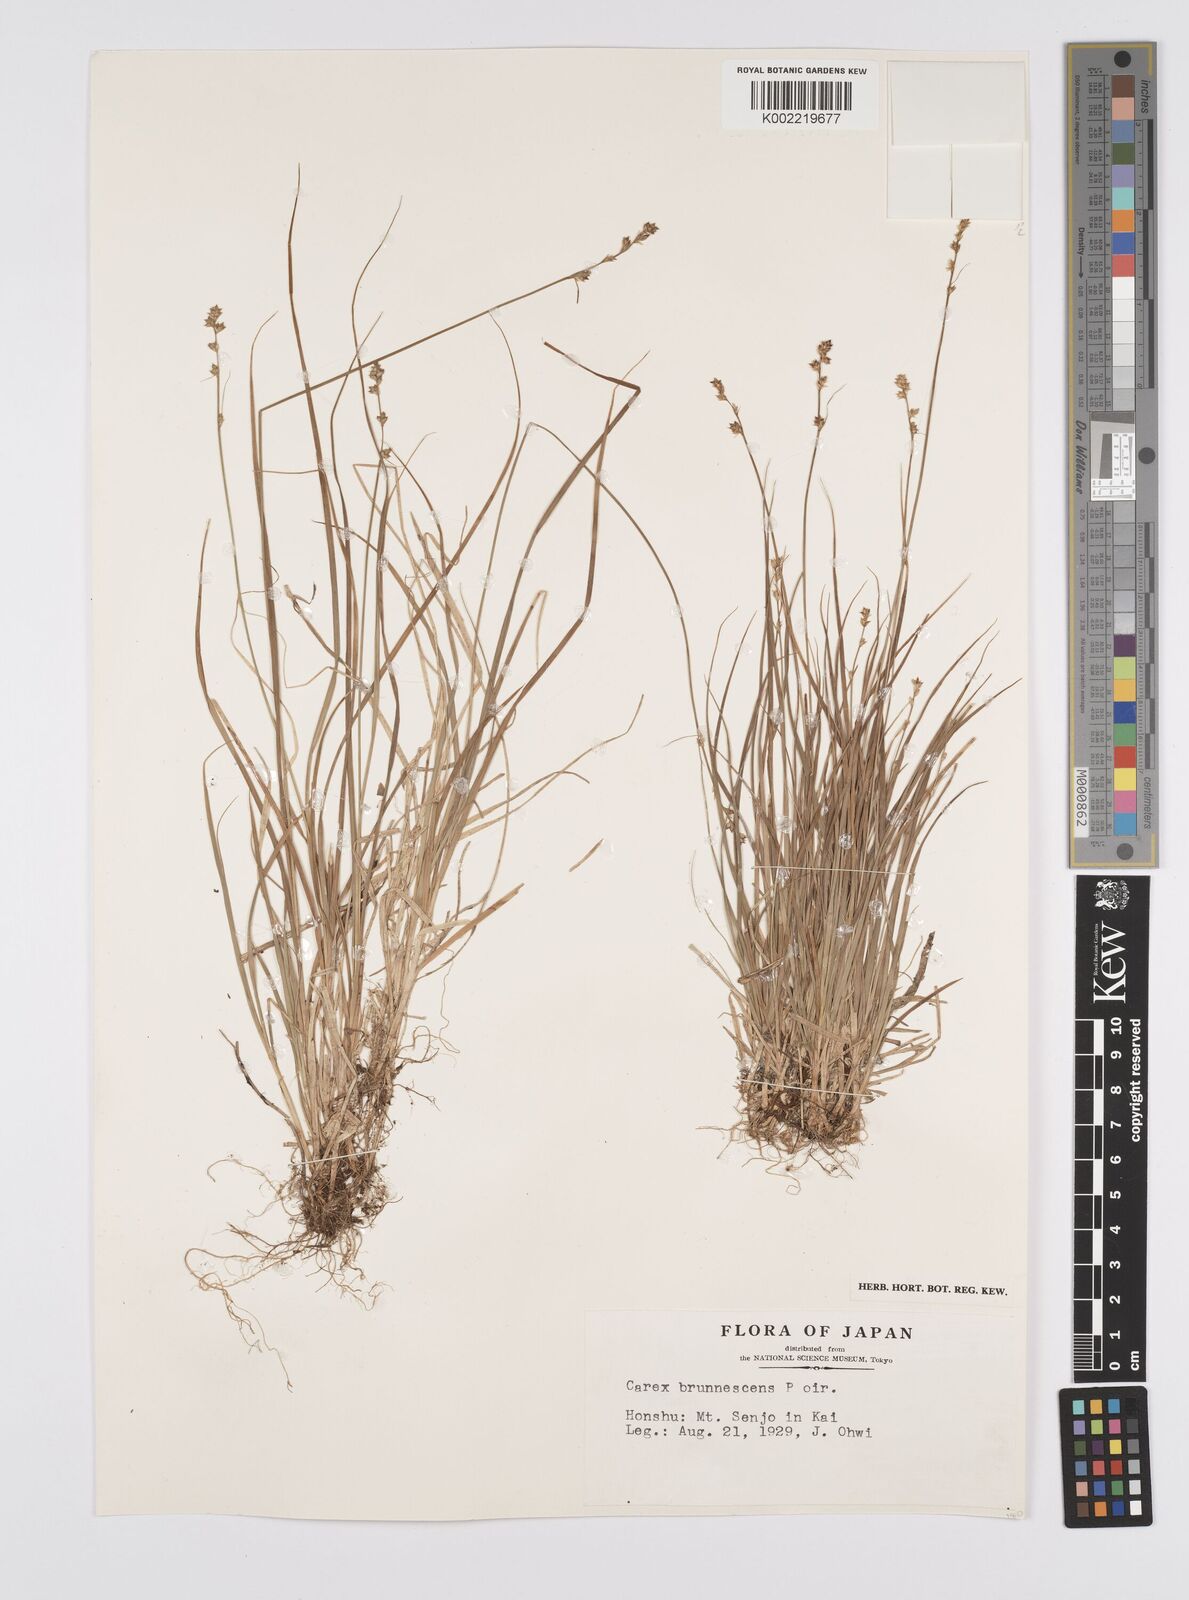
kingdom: Plantae
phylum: Tracheophyta
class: Liliopsida
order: Poales
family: Cyperaceae
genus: Carex
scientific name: Carex brunnescens
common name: Brown sedge
